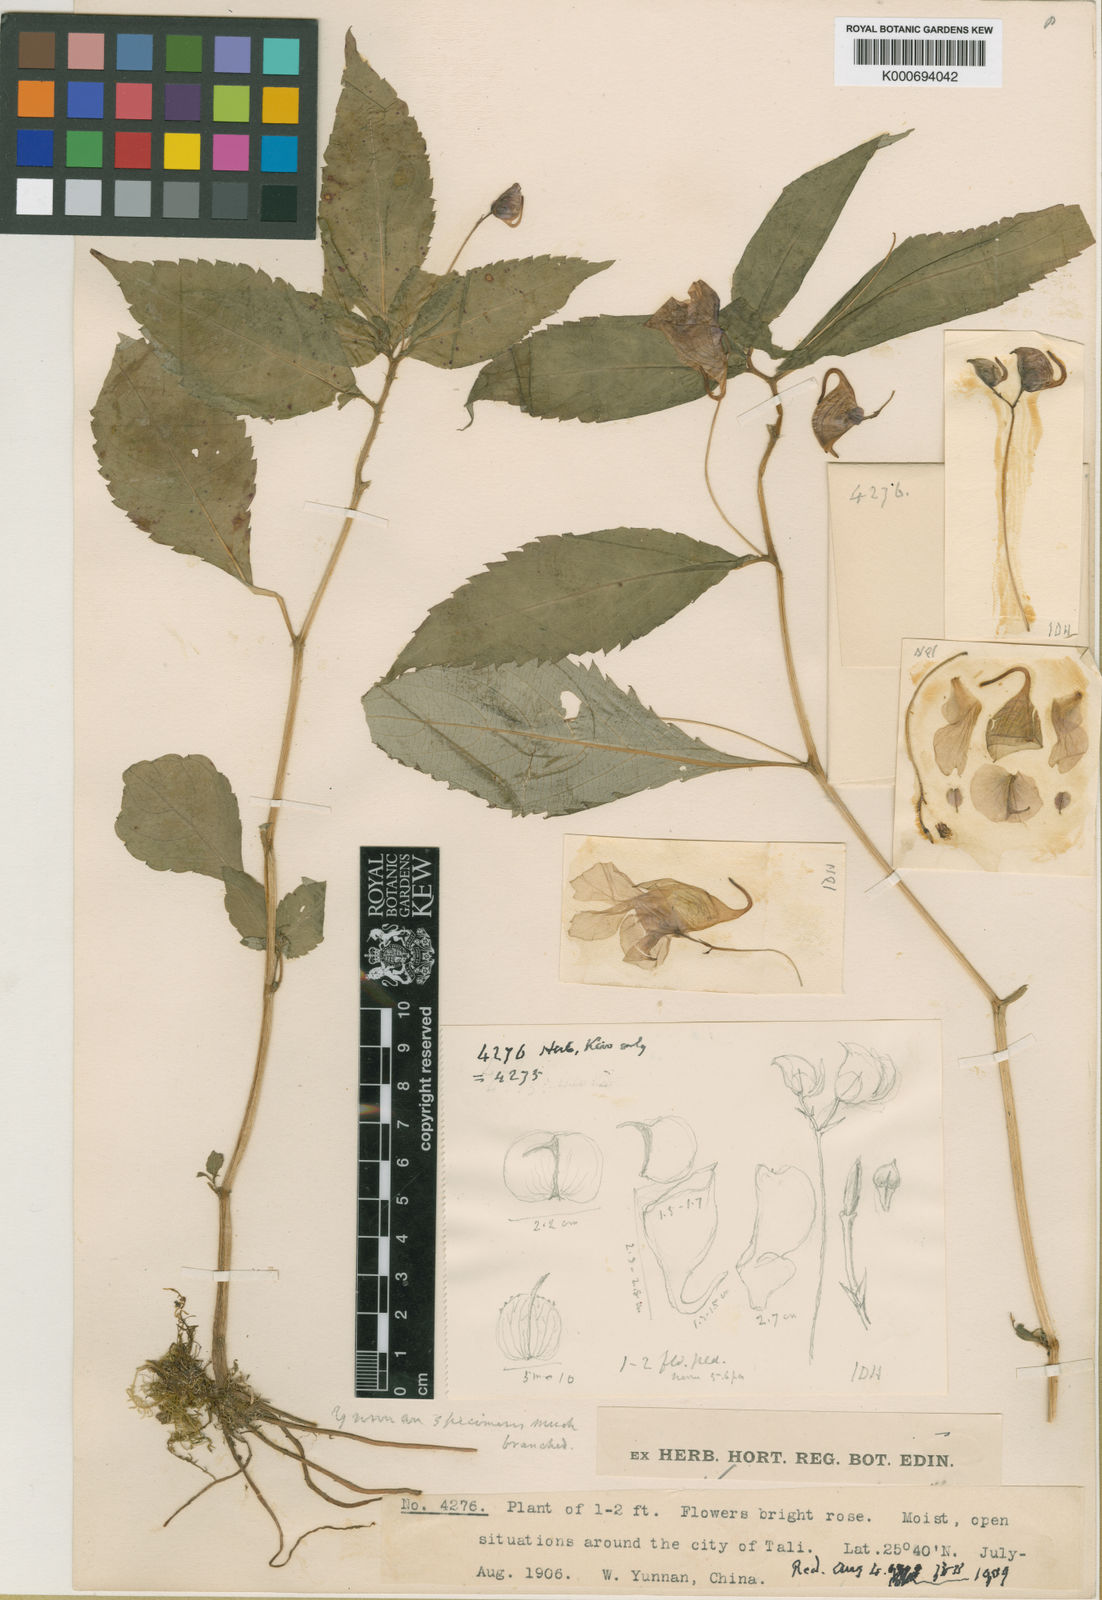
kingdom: Plantae
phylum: Tracheophyta
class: Magnoliopsida
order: Ericales
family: Balsaminaceae
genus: Impatiens
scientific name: Impatiens forrestii
